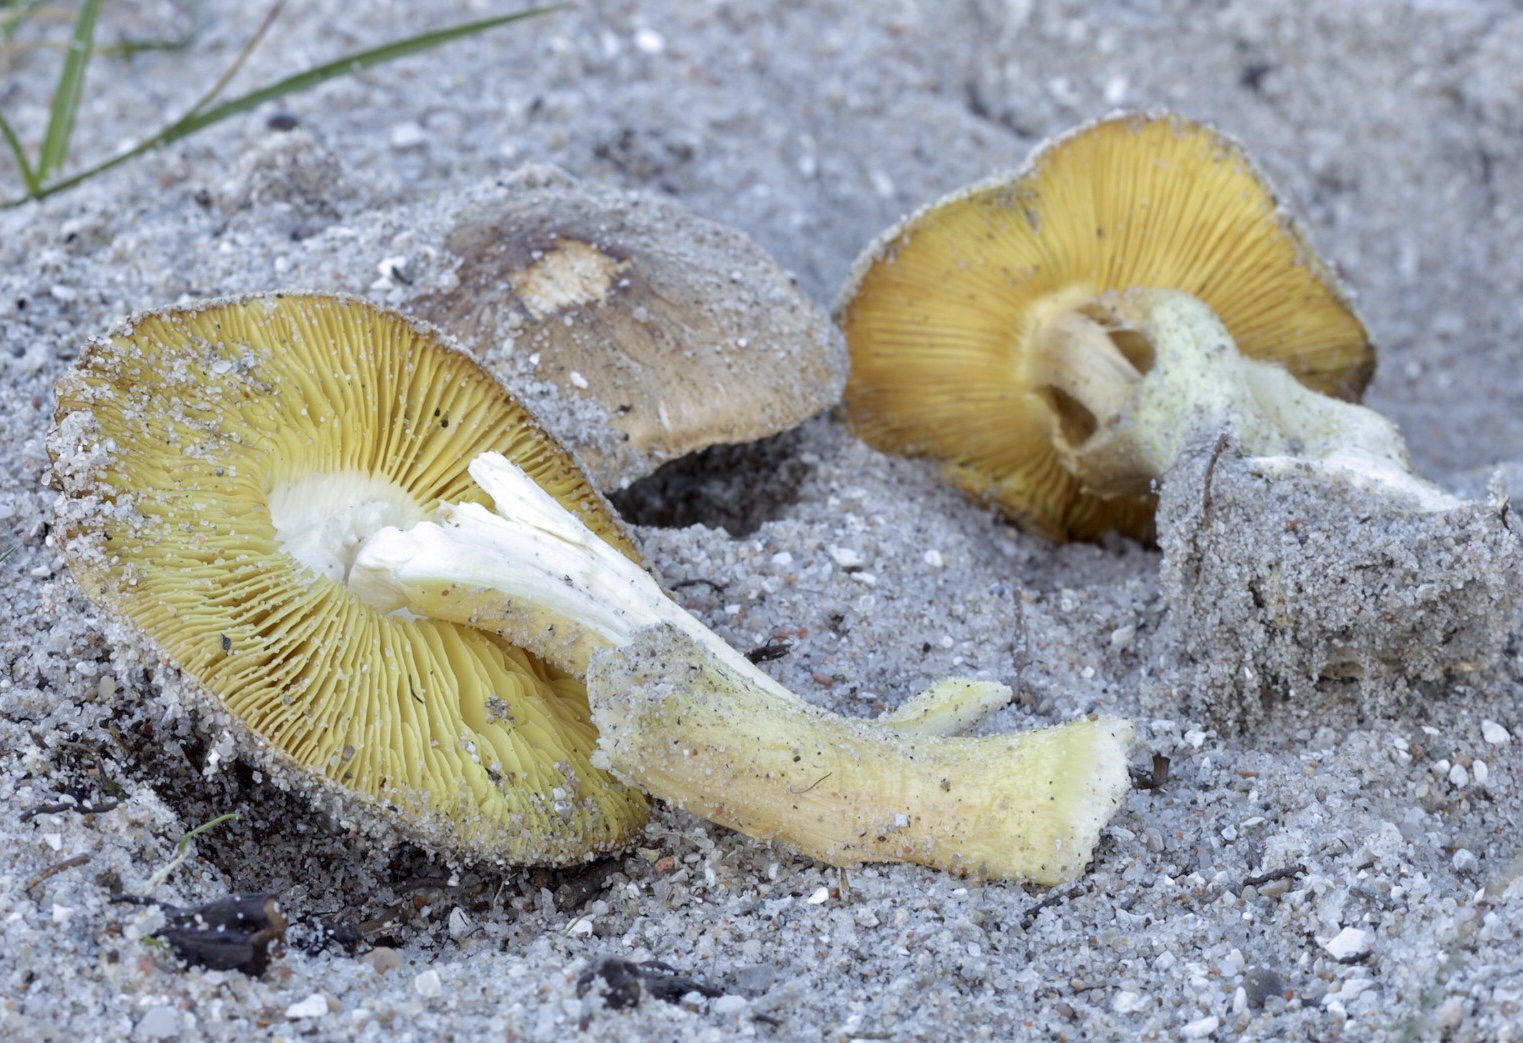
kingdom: Fungi
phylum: Basidiomycota
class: Agaricomycetes
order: Agaricales
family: Tricholomataceae
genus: Tricholoma
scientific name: Tricholoma equestre
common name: ægte ridderhat
